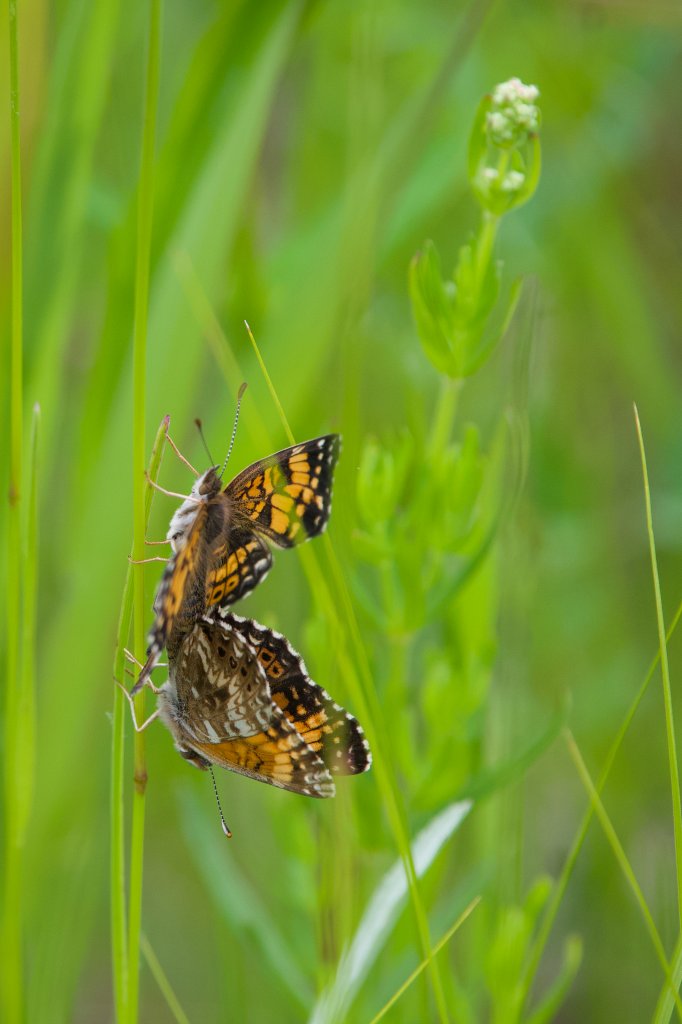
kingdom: Animalia
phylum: Arthropoda
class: Insecta
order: Lepidoptera
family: Nymphalidae
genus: Chlosyne
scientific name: Chlosyne gorgone
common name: Gorgone Checkerspot
